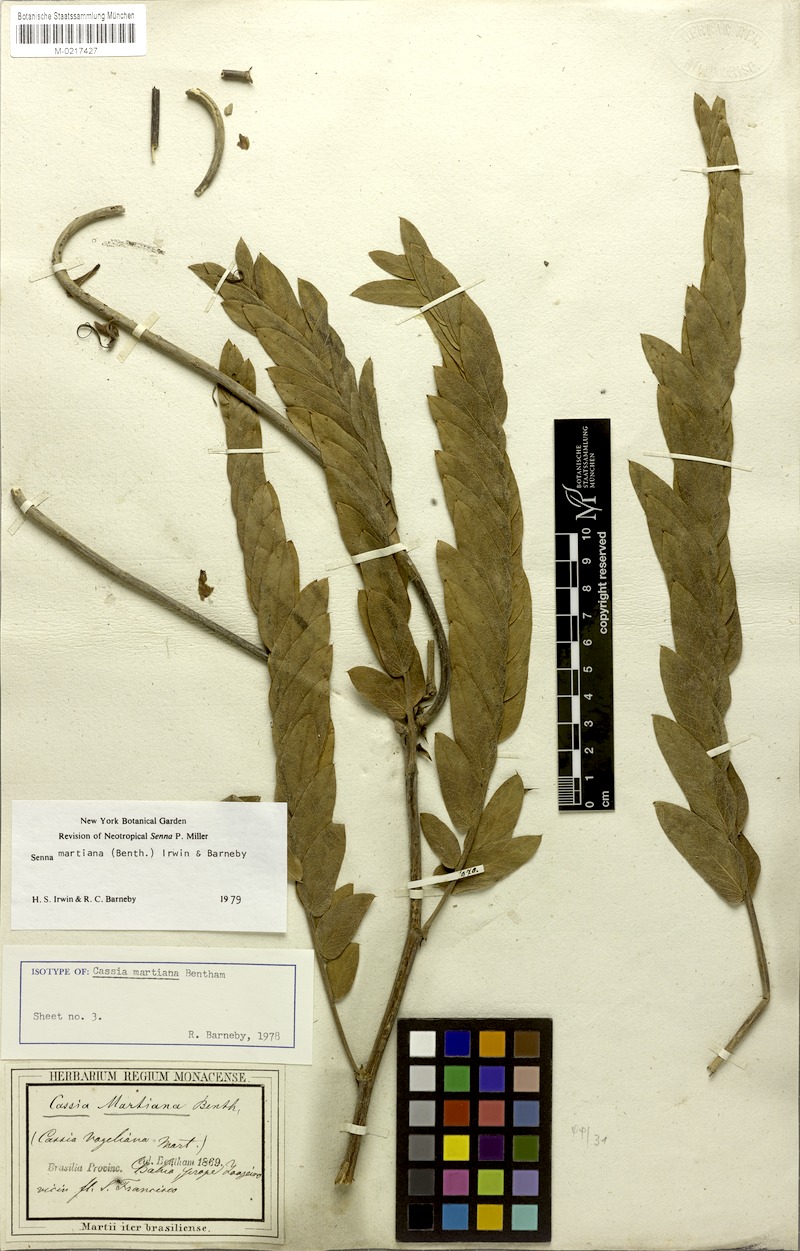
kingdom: Plantae
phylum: Tracheophyta
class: Magnoliopsida
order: Fabales
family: Fabaceae
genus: Senna
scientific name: Senna martiana
